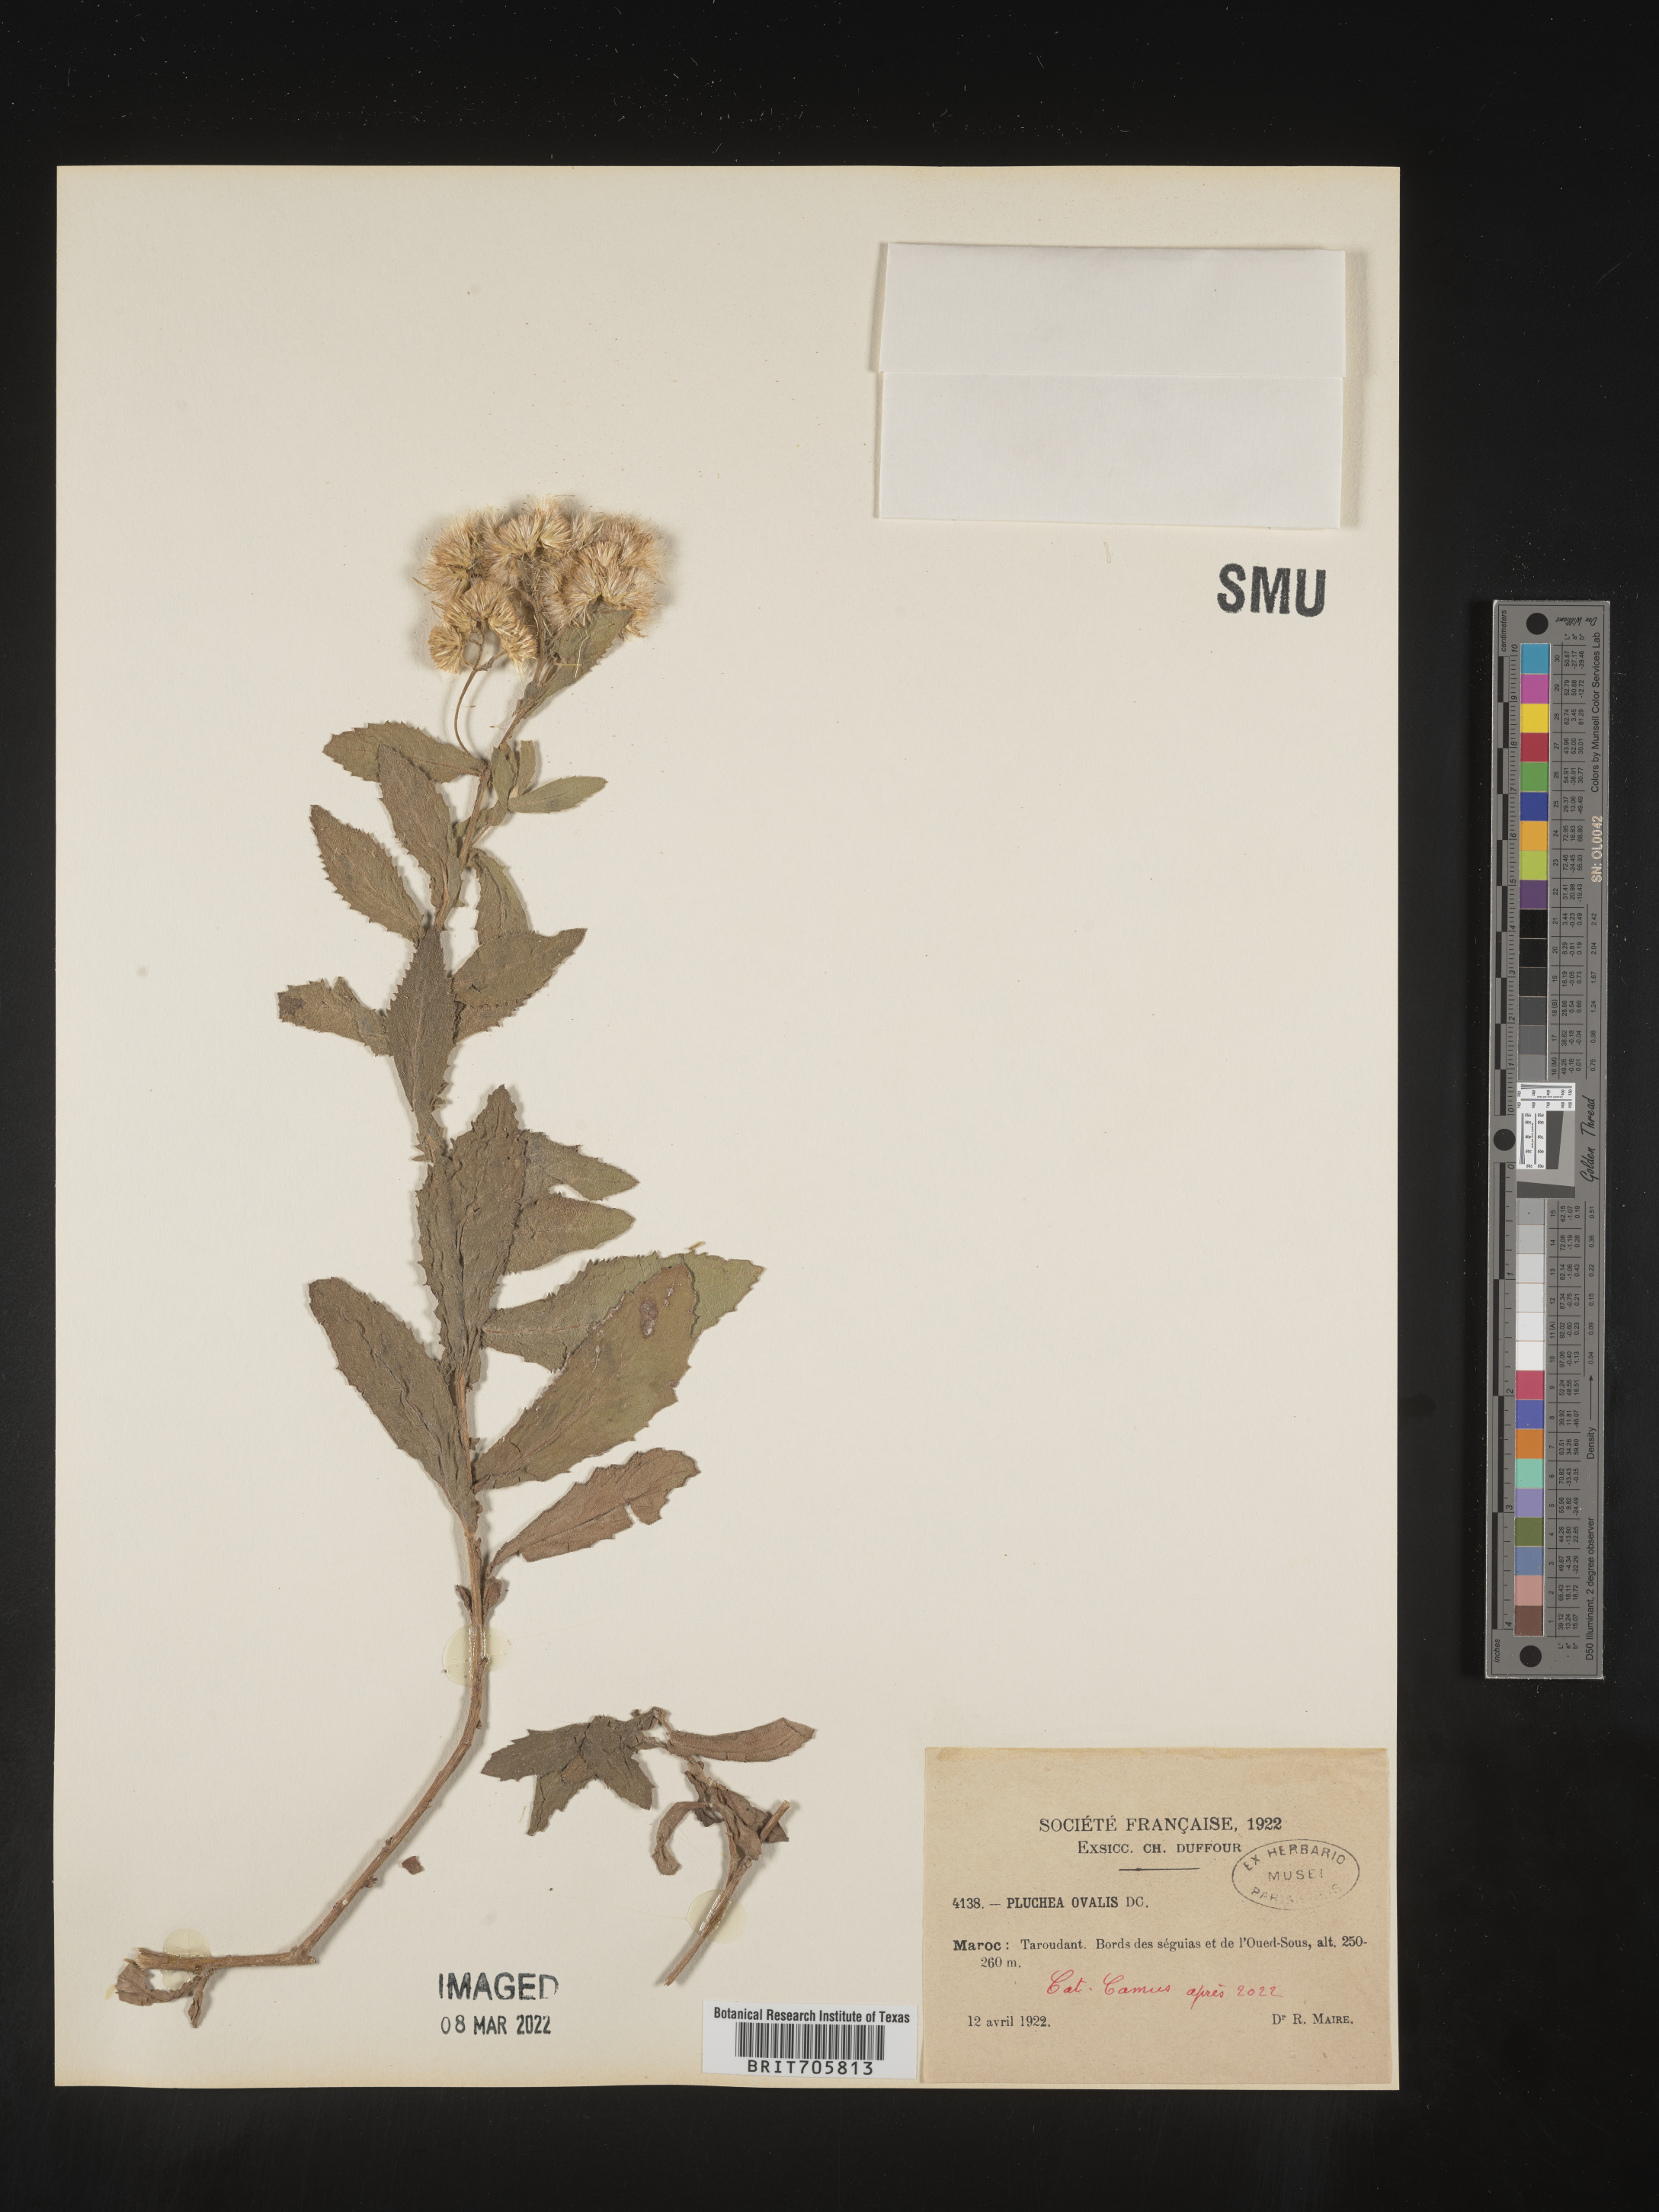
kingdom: Plantae
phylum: Tracheophyta
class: Magnoliopsida
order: Asterales
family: Asteraceae
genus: Pluchea
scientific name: Pluchea
